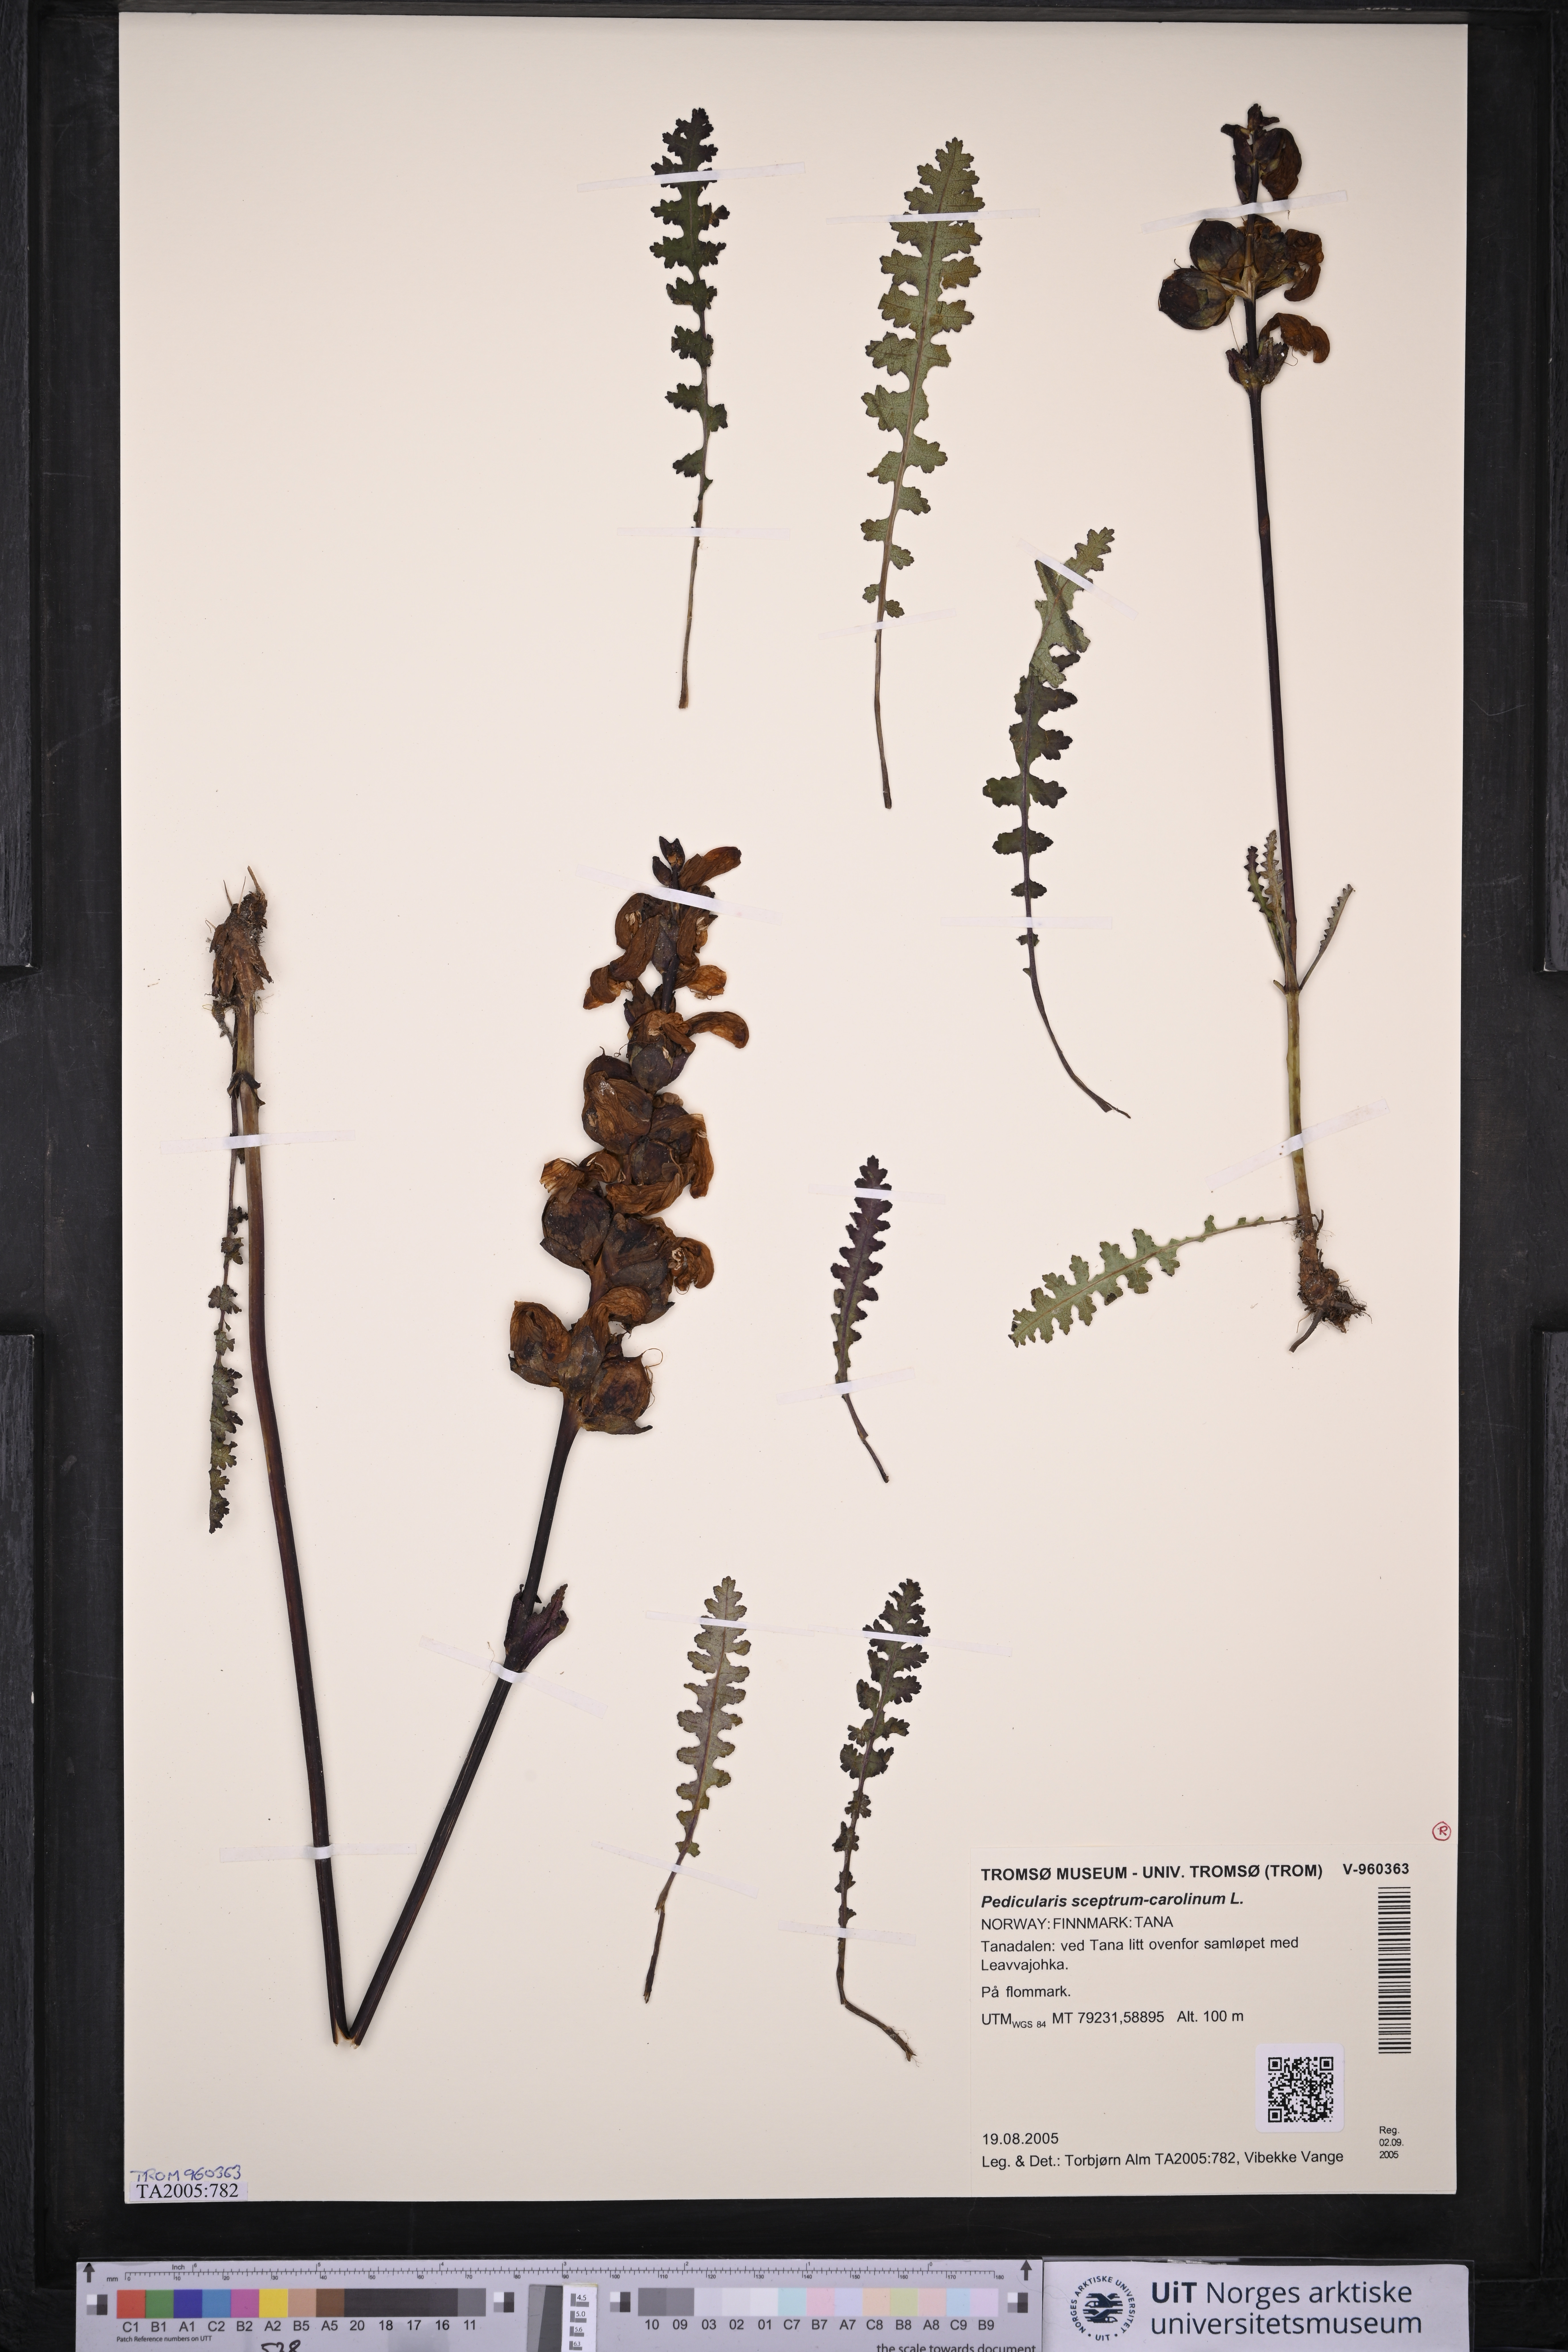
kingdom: Plantae
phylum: Tracheophyta
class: Magnoliopsida
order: Lamiales
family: Orobanchaceae
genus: Pedicularis
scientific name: Pedicularis sceptrum-carolinum
